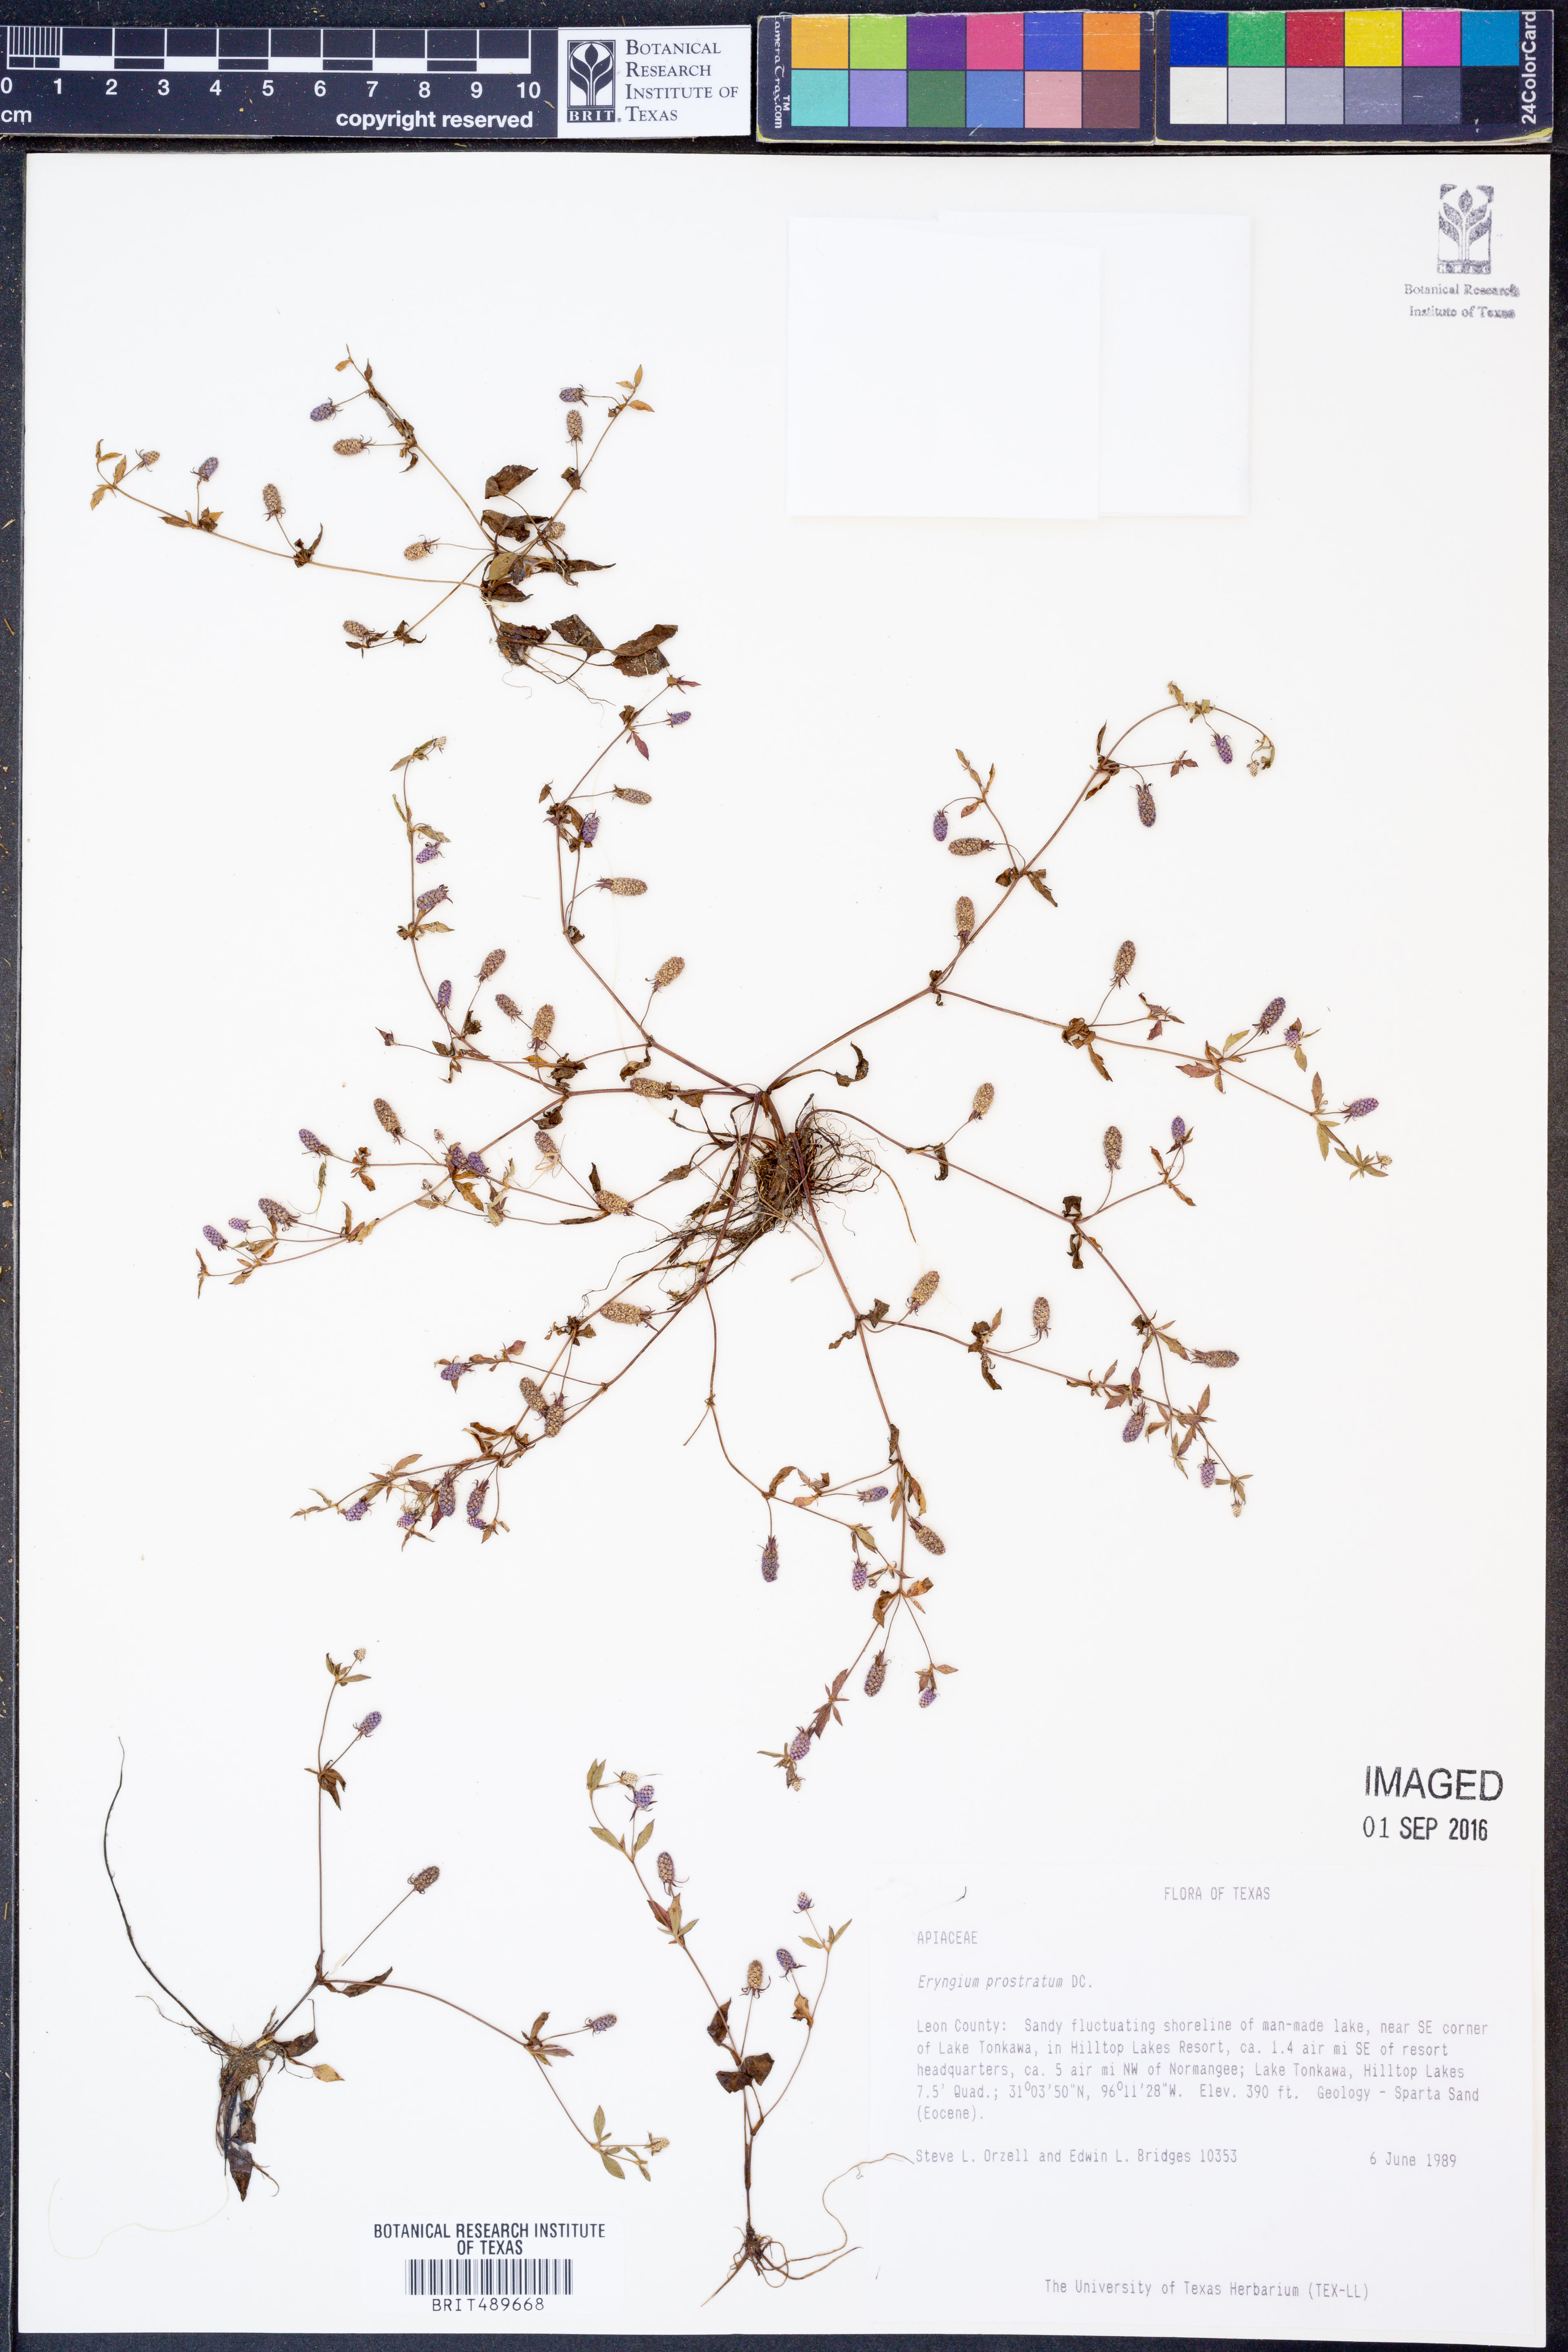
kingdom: Plantae
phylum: Tracheophyta
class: Magnoliopsida
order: Apiales
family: Apiaceae
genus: Eryngium
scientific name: Eryngium prostratum
